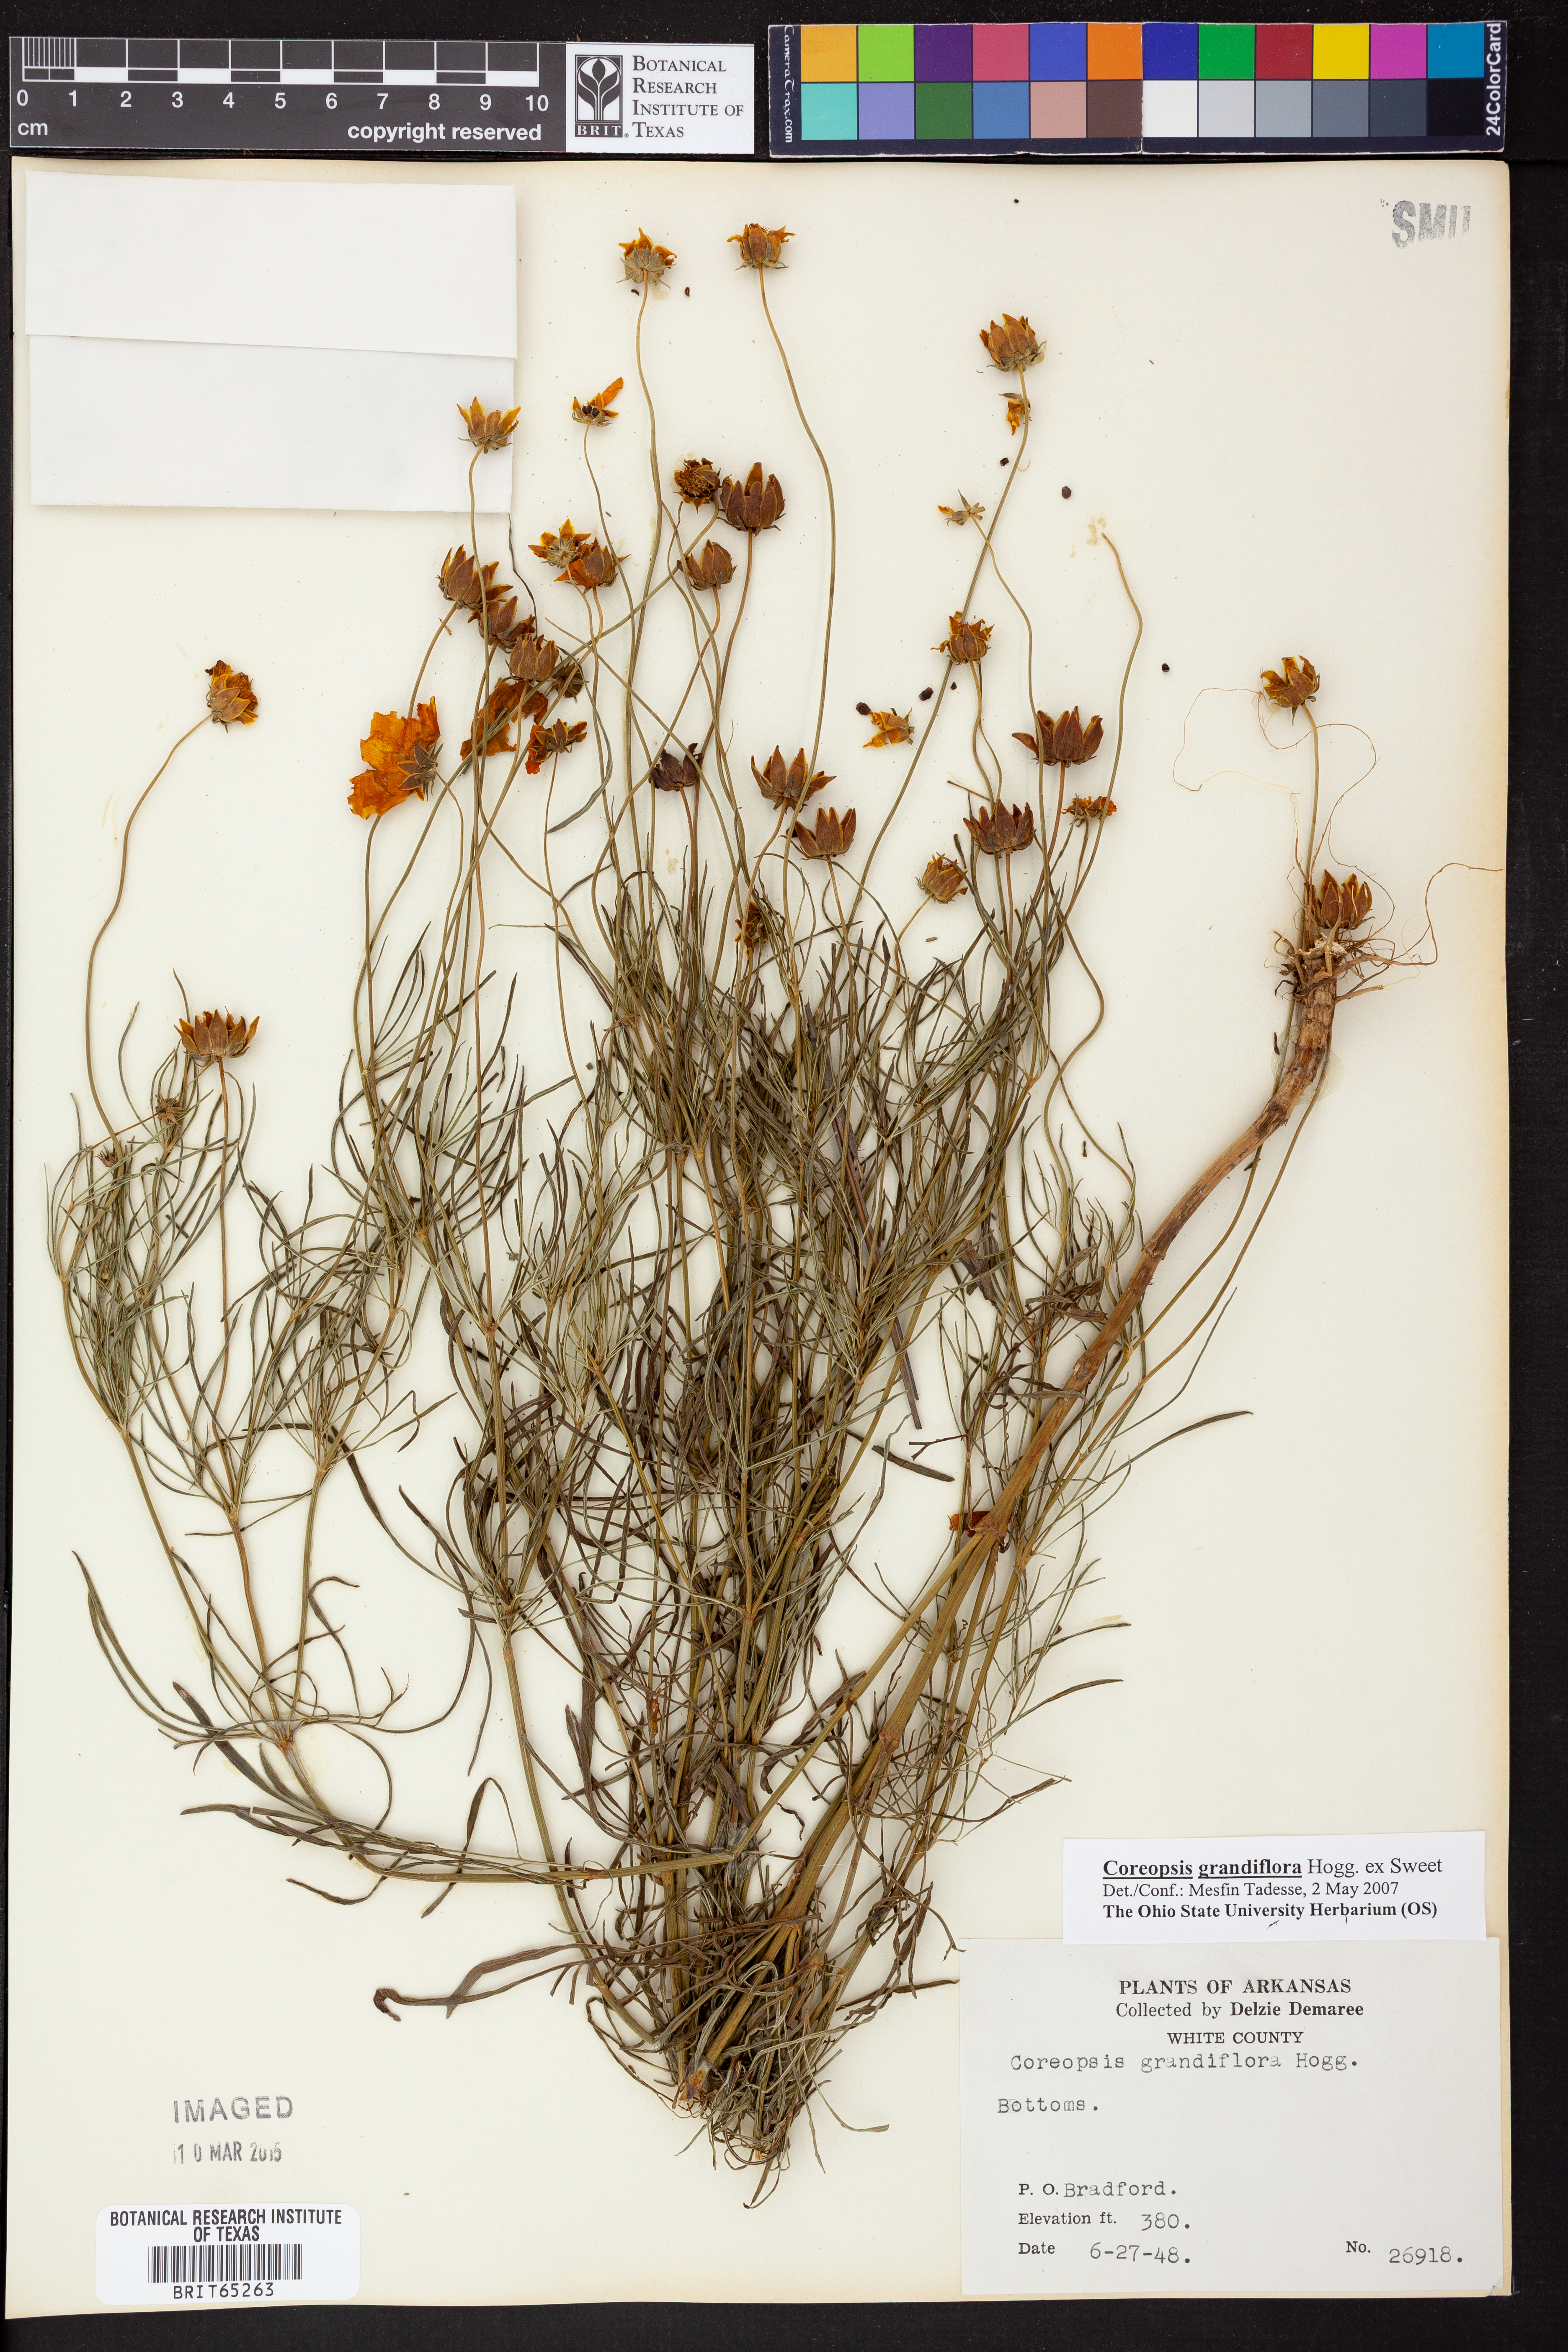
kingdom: Plantae
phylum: Tracheophyta
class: Magnoliopsida
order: Asterales
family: Asteraceae
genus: Coreopsis
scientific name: Coreopsis grandiflora
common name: Large-flowered tickseed
